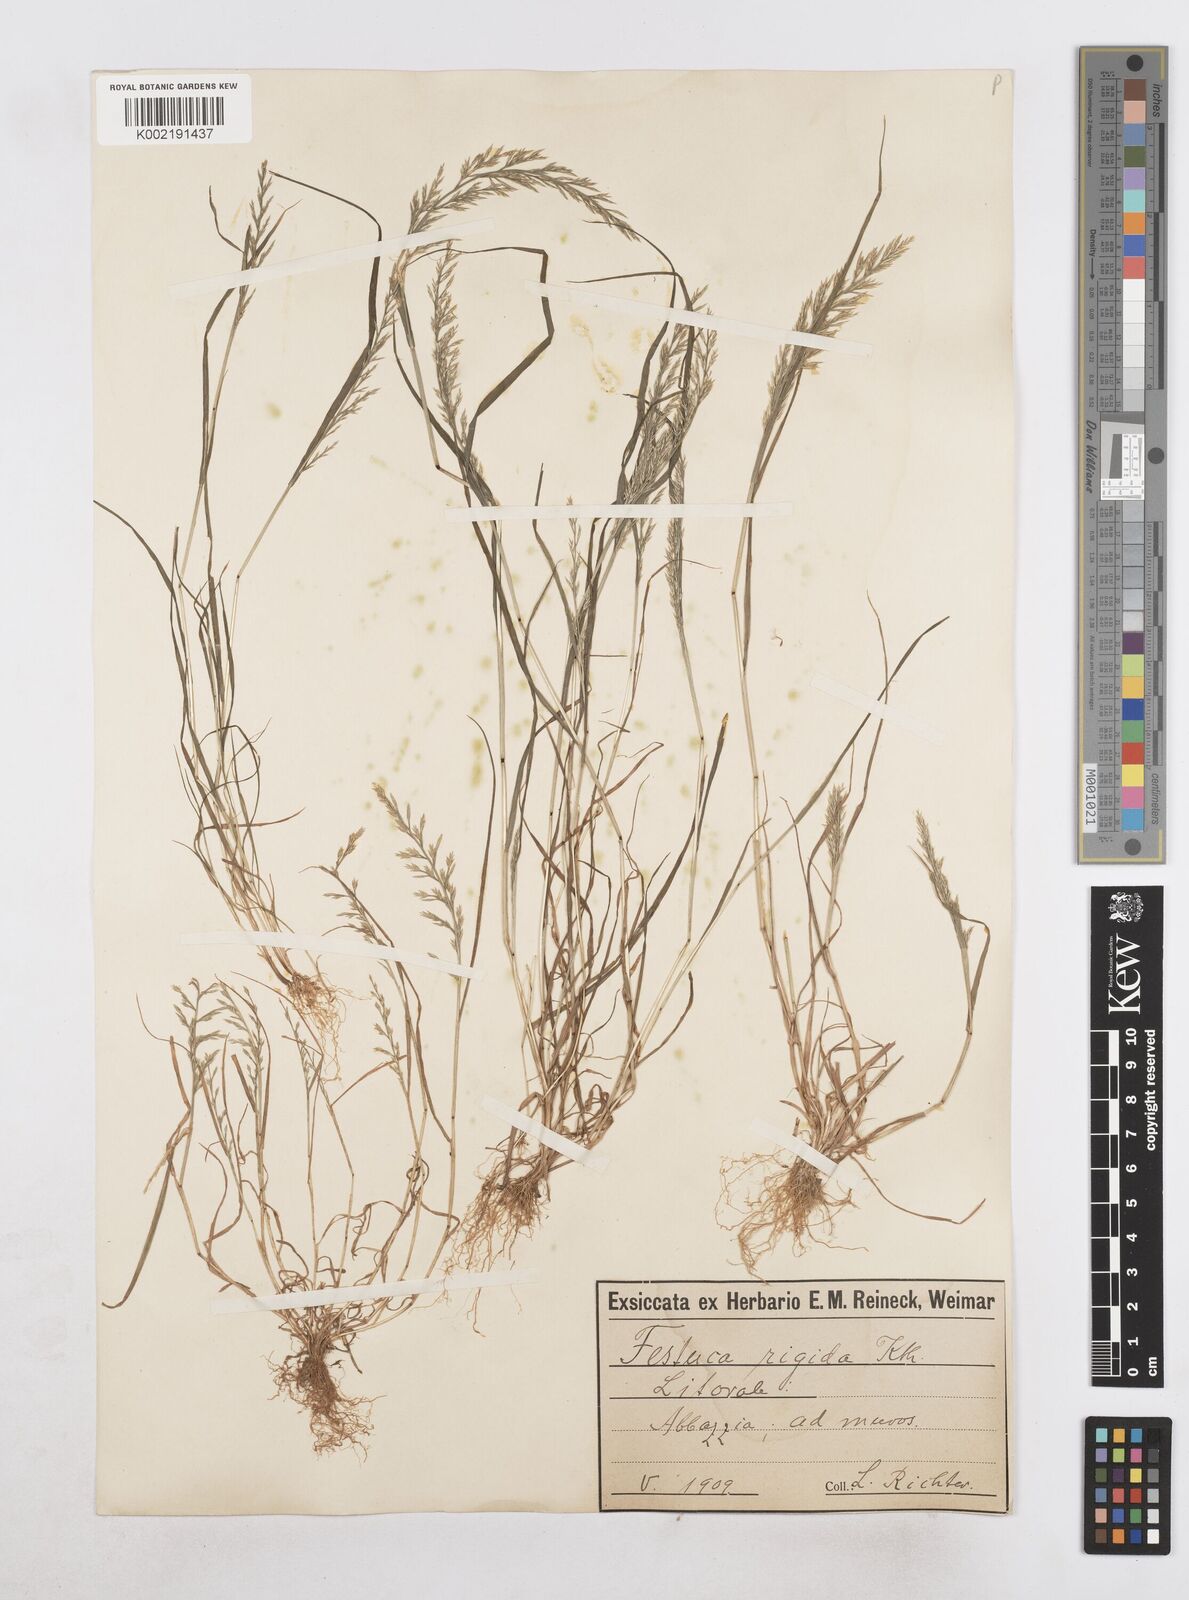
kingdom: Plantae
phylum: Tracheophyta
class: Liliopsida
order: Poales
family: Poaceae
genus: Catapodium
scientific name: Catapodium rigidum
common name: Fern-grass
